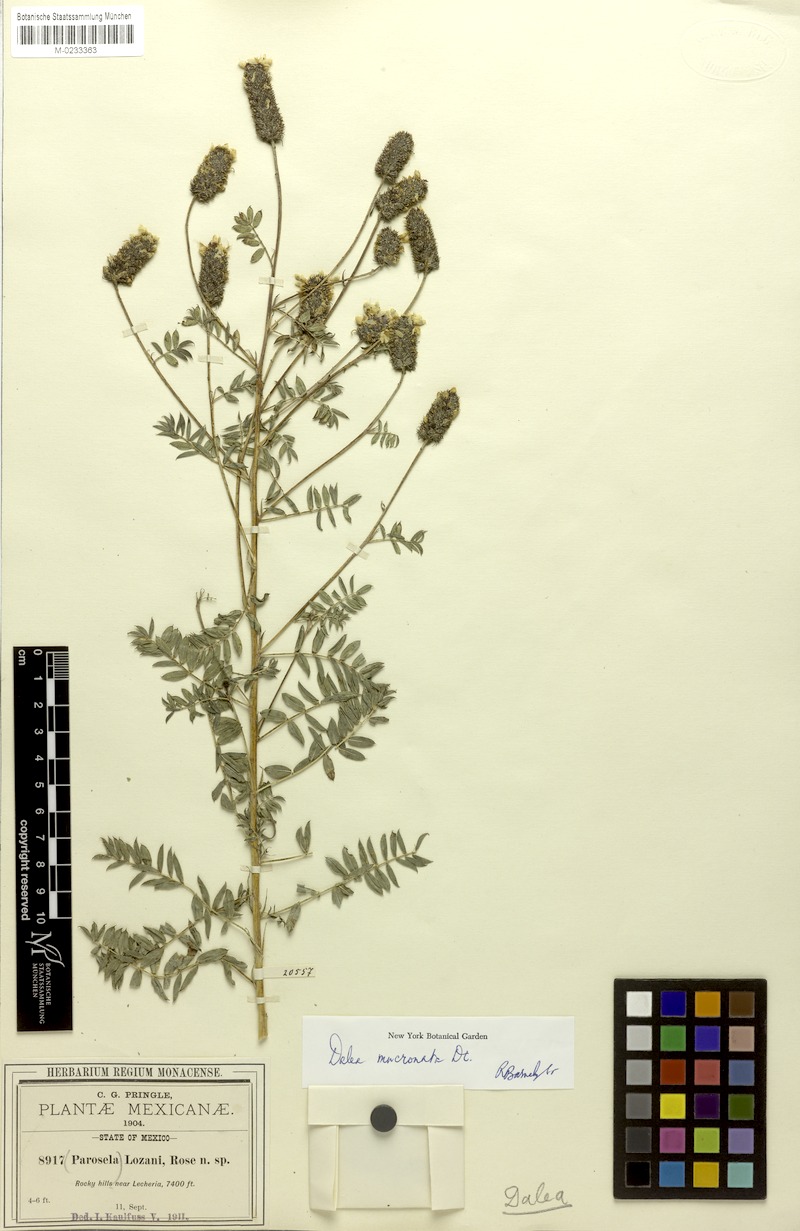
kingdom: Plantae
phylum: Tracheophyta
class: Magnoliopsida
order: Fabales
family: Fabaceae
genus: Dalea
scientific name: Dalea mucronata
